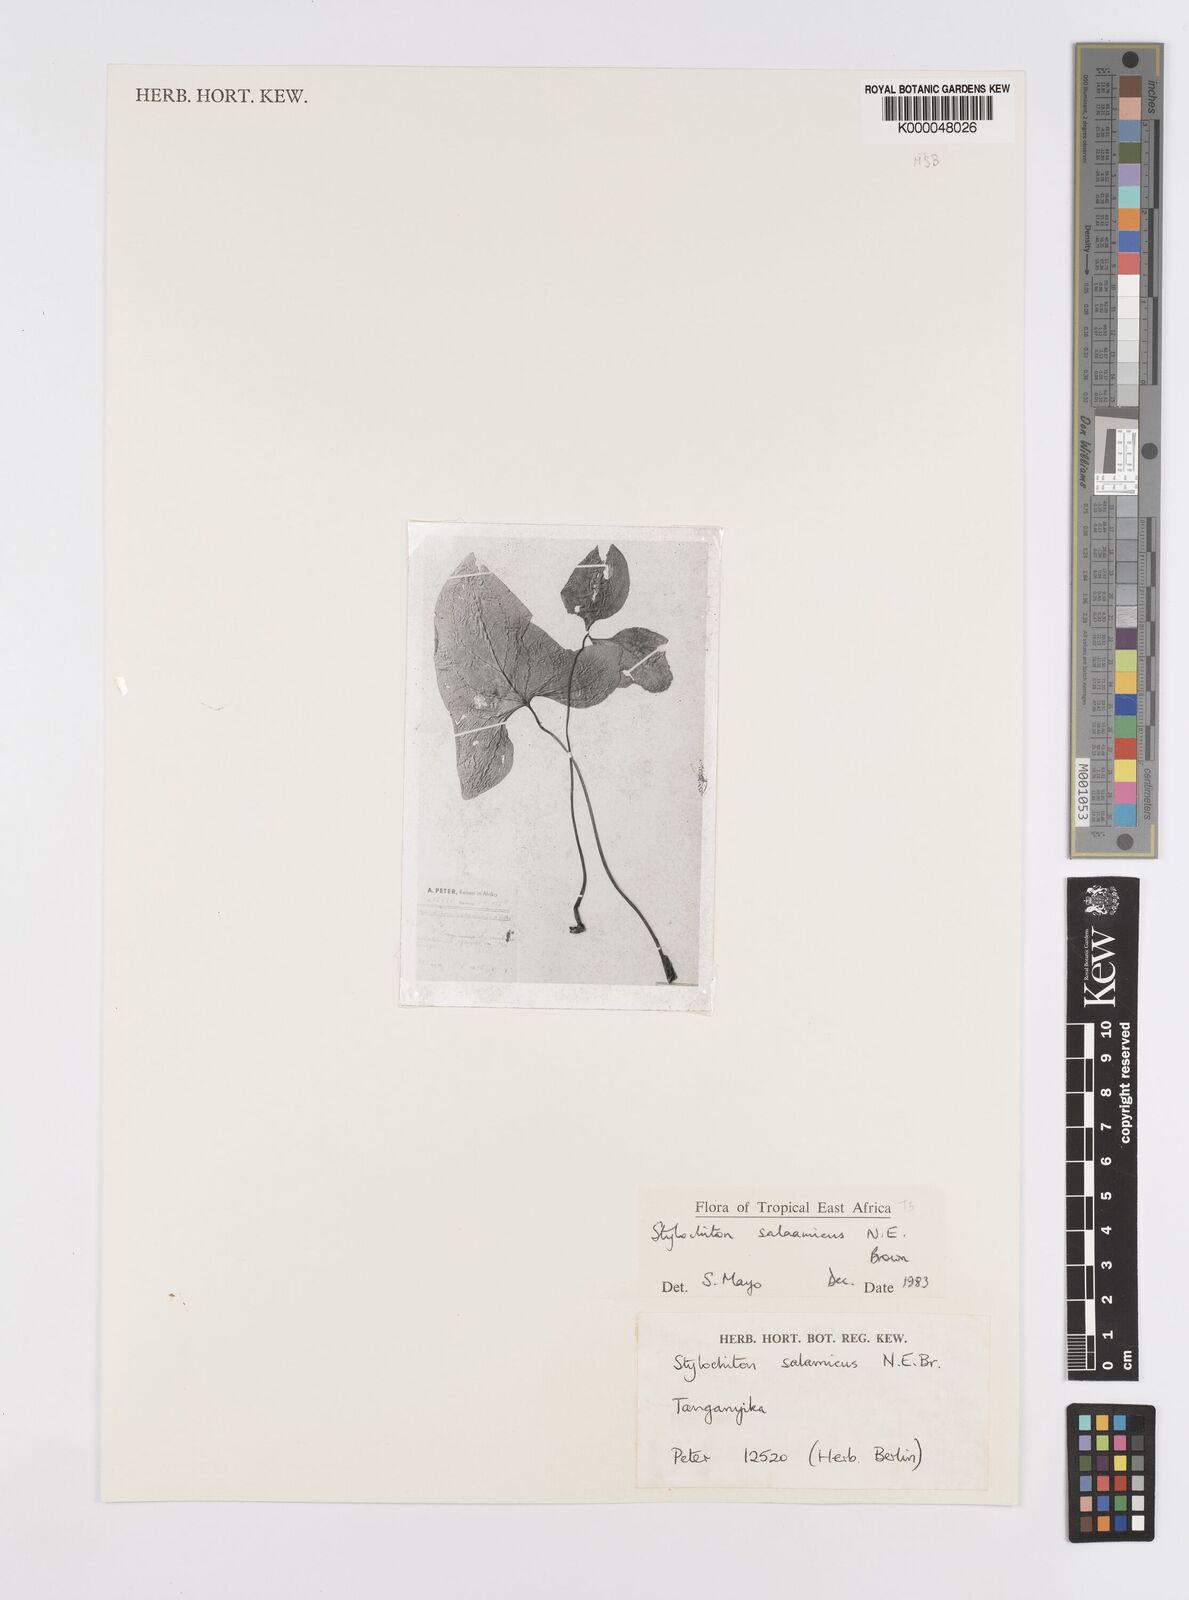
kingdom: Plantae
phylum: Tracheophyta
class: Liliopsida
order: Alismatales
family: Araceae
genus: Stylochaeton
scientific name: Stylochaeton salaamicum
